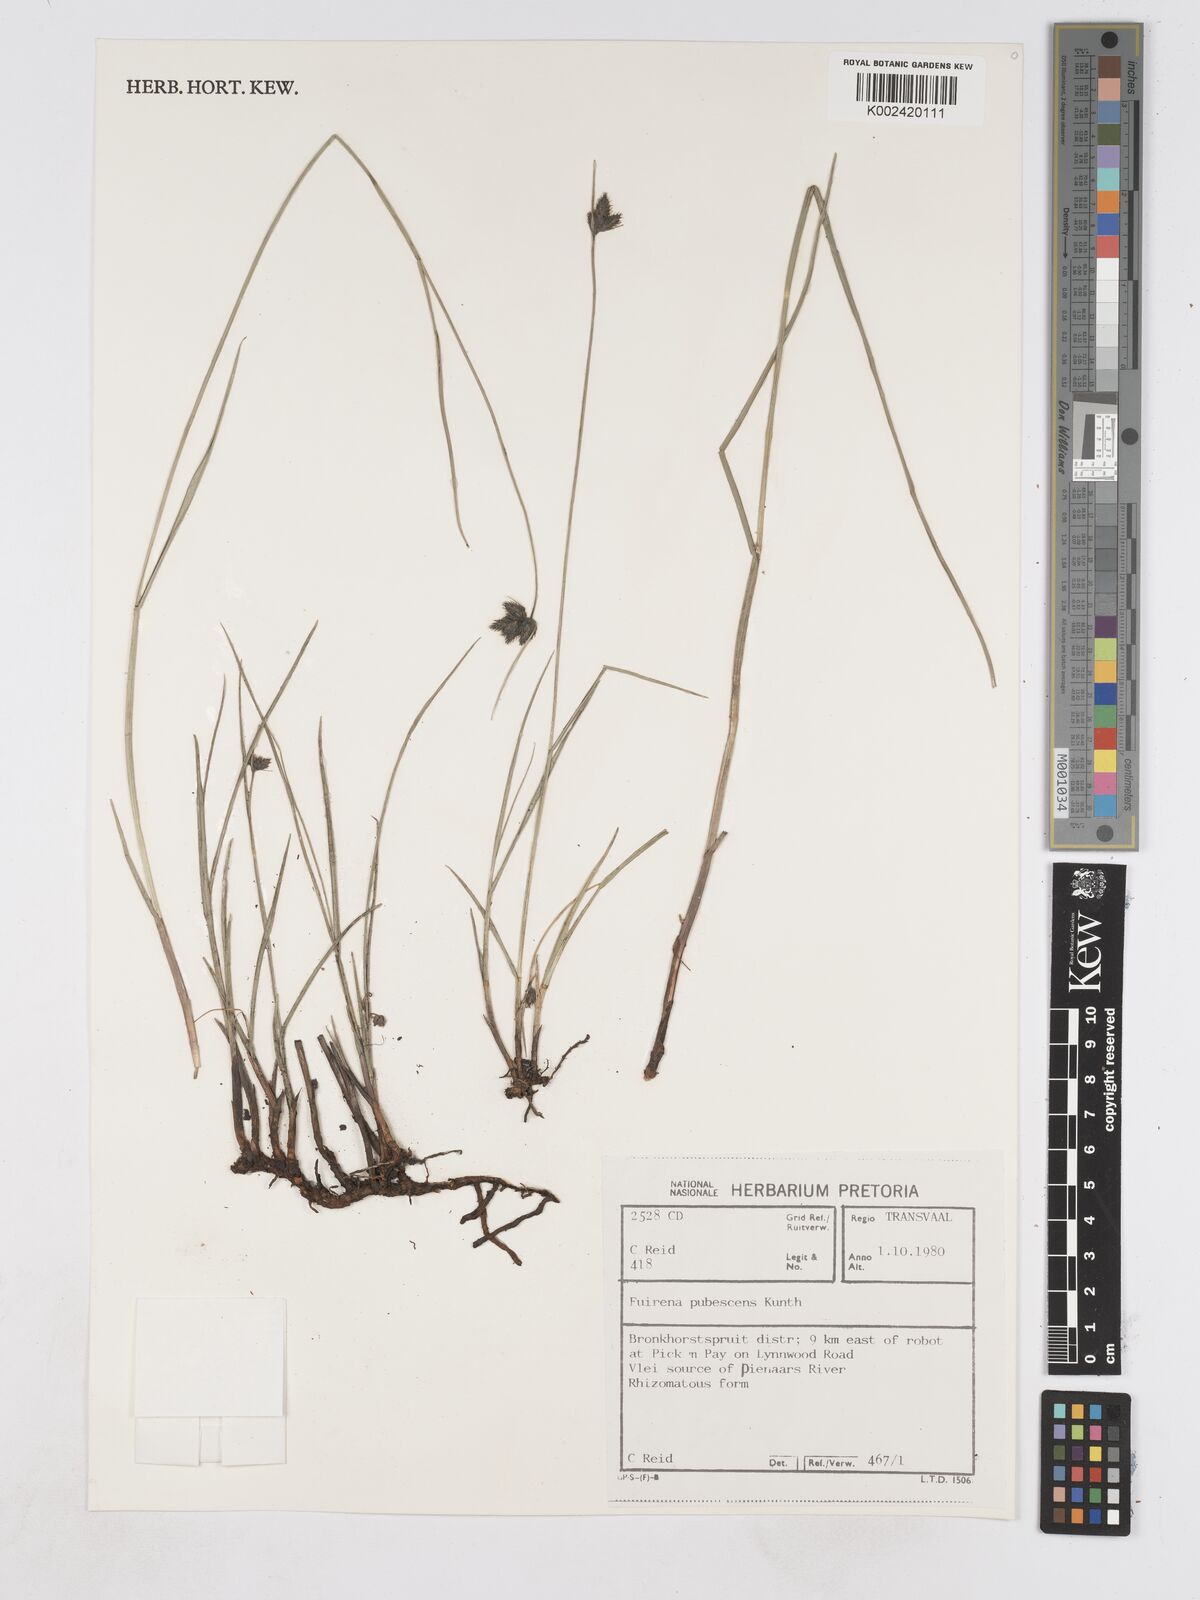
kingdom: Plantae
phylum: Tracheophyta
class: Liliopsida
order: Poales
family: Cyperaceae
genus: Fuirena
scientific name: Fuirena pubescens
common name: Hairy sedge
